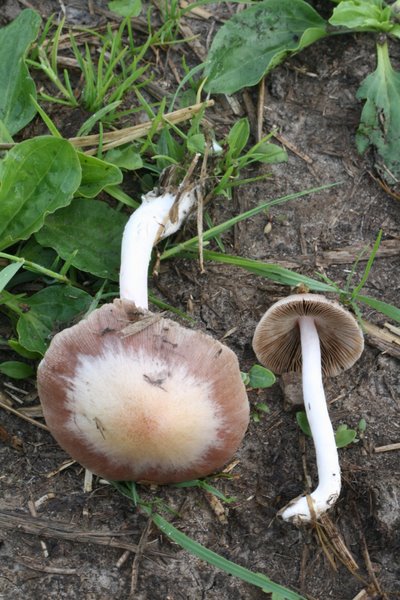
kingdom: Fungi
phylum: Basidiomycota
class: Agaricomycetes
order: Agaricales
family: Bolbitiaceae
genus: Bolbitius
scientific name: Bolbitius coprophilus
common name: rosa gulhat
